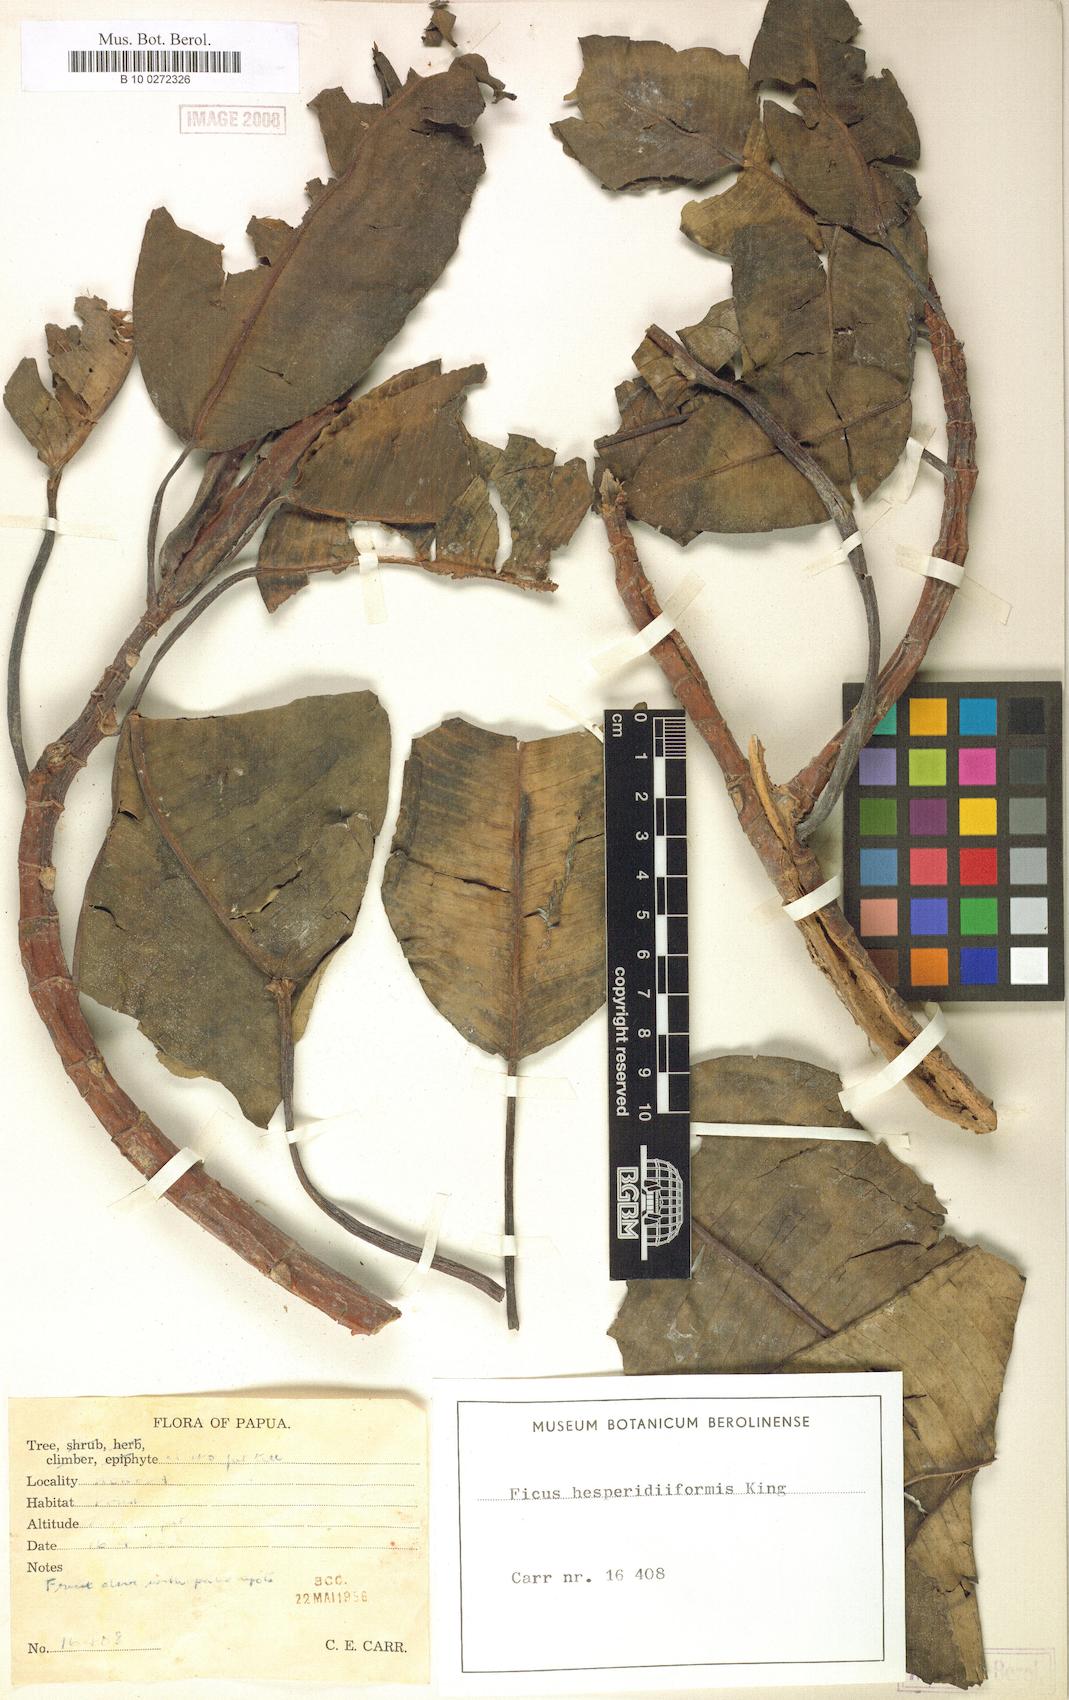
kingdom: Plantae
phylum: Tracheophyta
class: Magnoliopsida
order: Rosales
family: Moraceae
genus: Ficus
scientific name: Ficus hesperidiiformis
